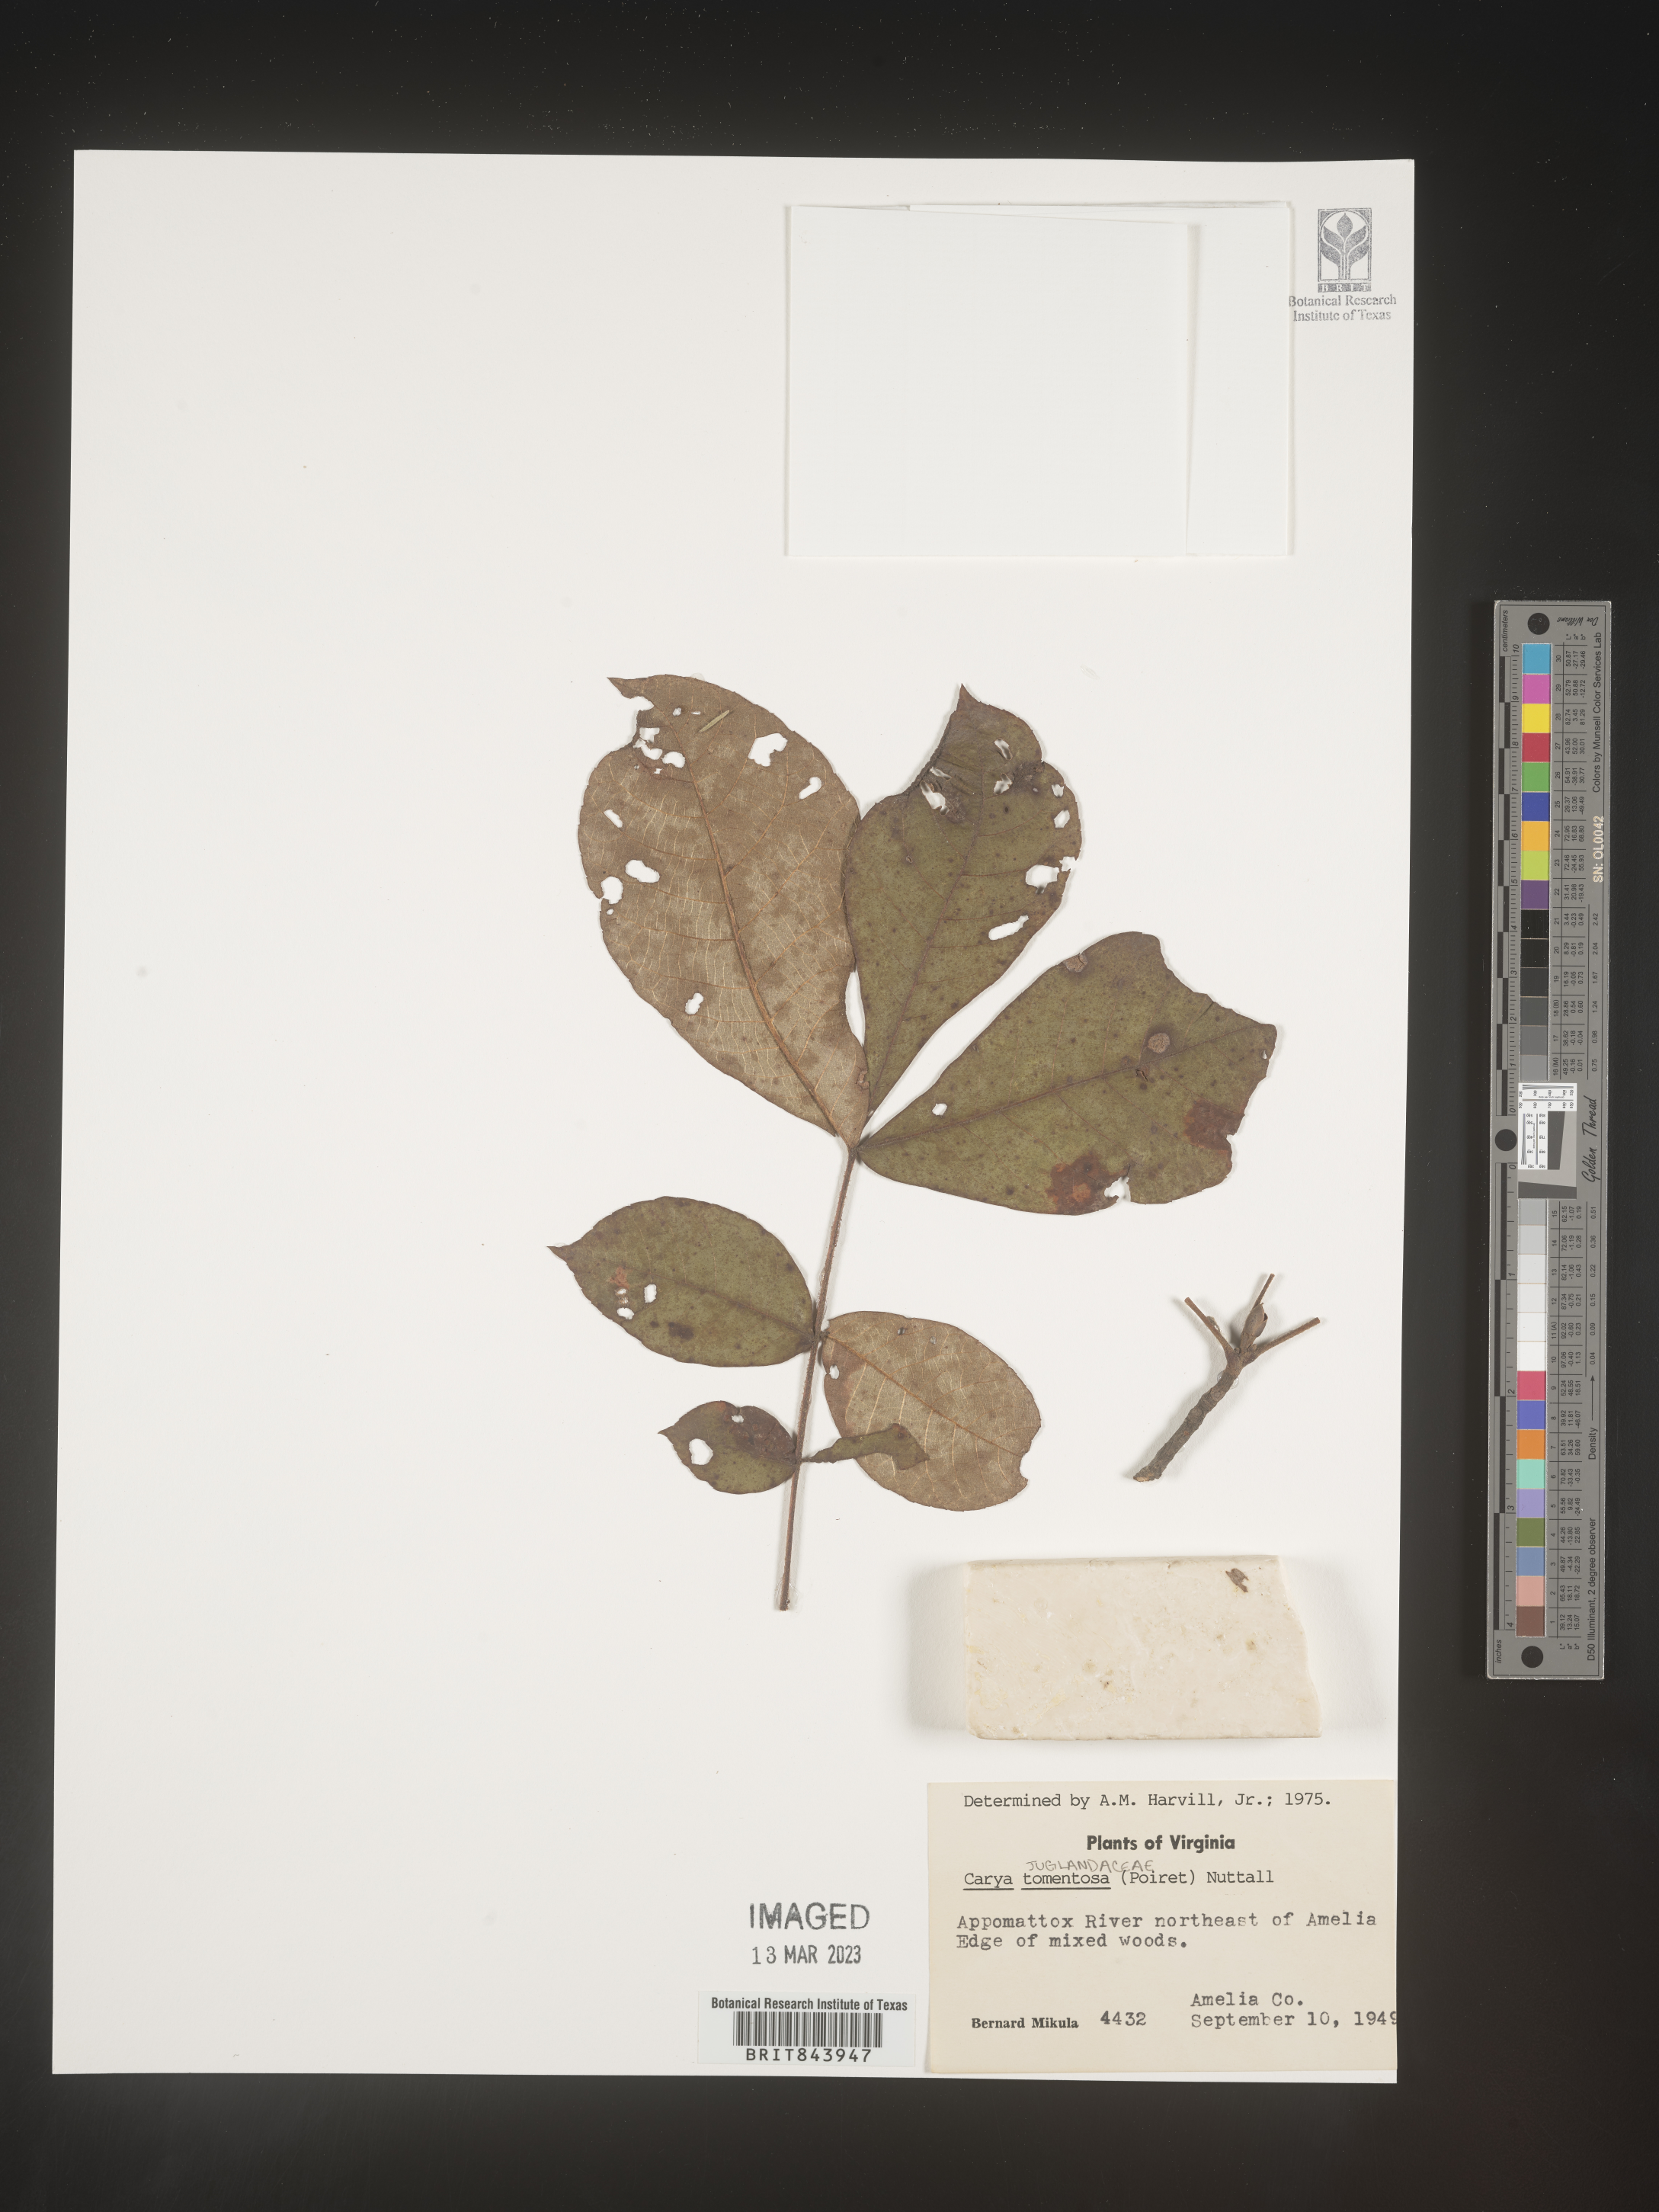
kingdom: Plantae
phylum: Tracheophyta
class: Magnoliopsida
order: Fagales
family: Juglandaceae
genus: Carya
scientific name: Carya alba
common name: Mockernut hickory
